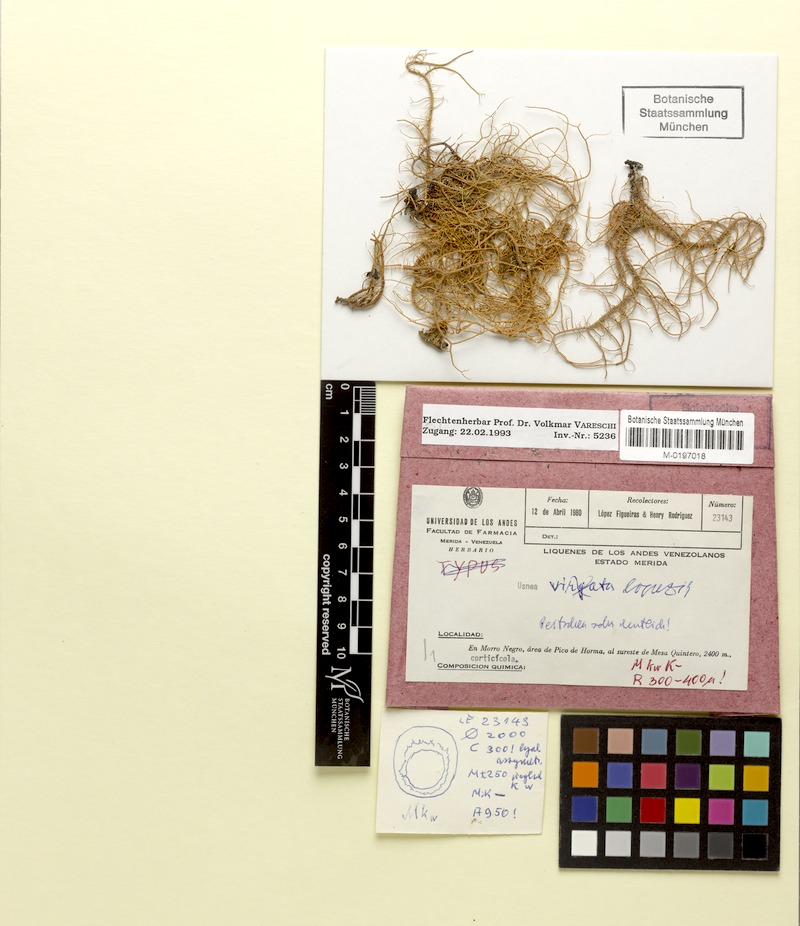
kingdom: Fungi
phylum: Ascomycota
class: Lecanoromycetes
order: Lecanorales
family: Parmeliaceae
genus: Usnea
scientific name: Usnea rubicunda
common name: Red beard lichen
